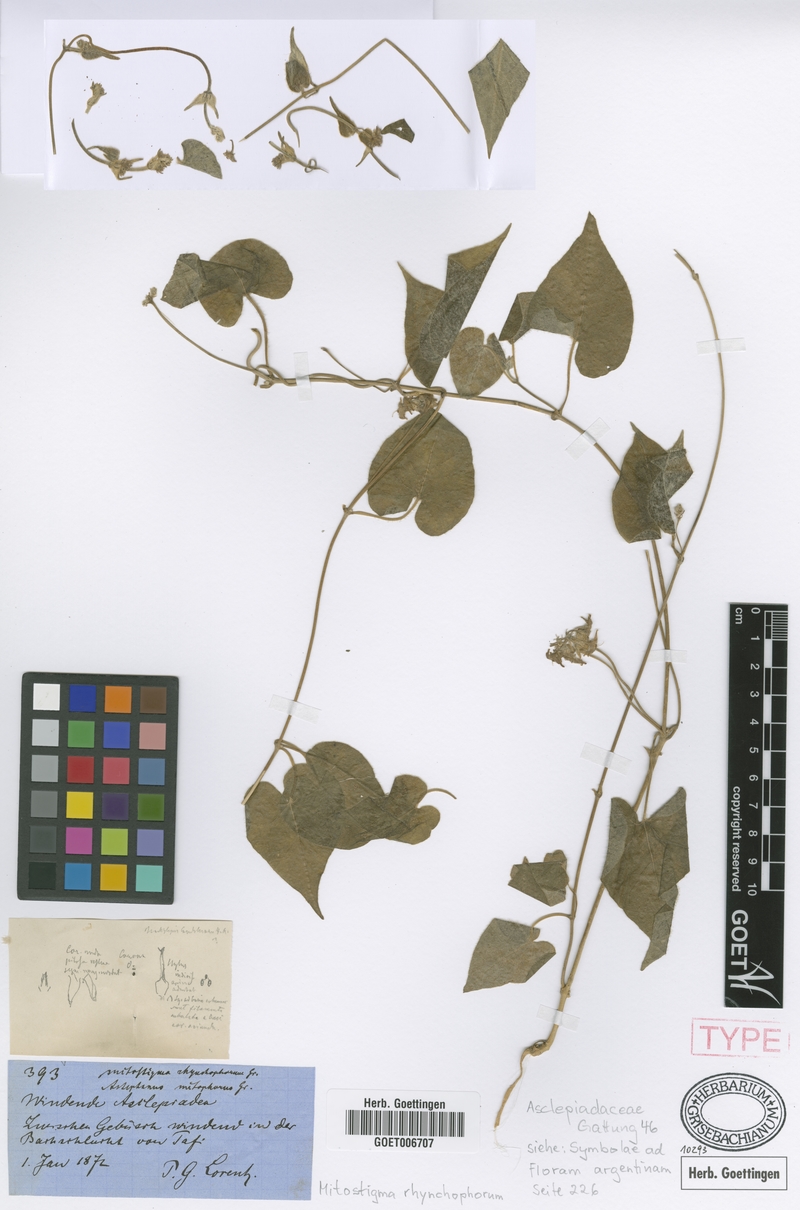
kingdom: Plantae
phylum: Tracheophyta
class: Magnoliopsida
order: Gentianales
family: Apocynaceae
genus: Philibertia
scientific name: Philibertia mitophora
